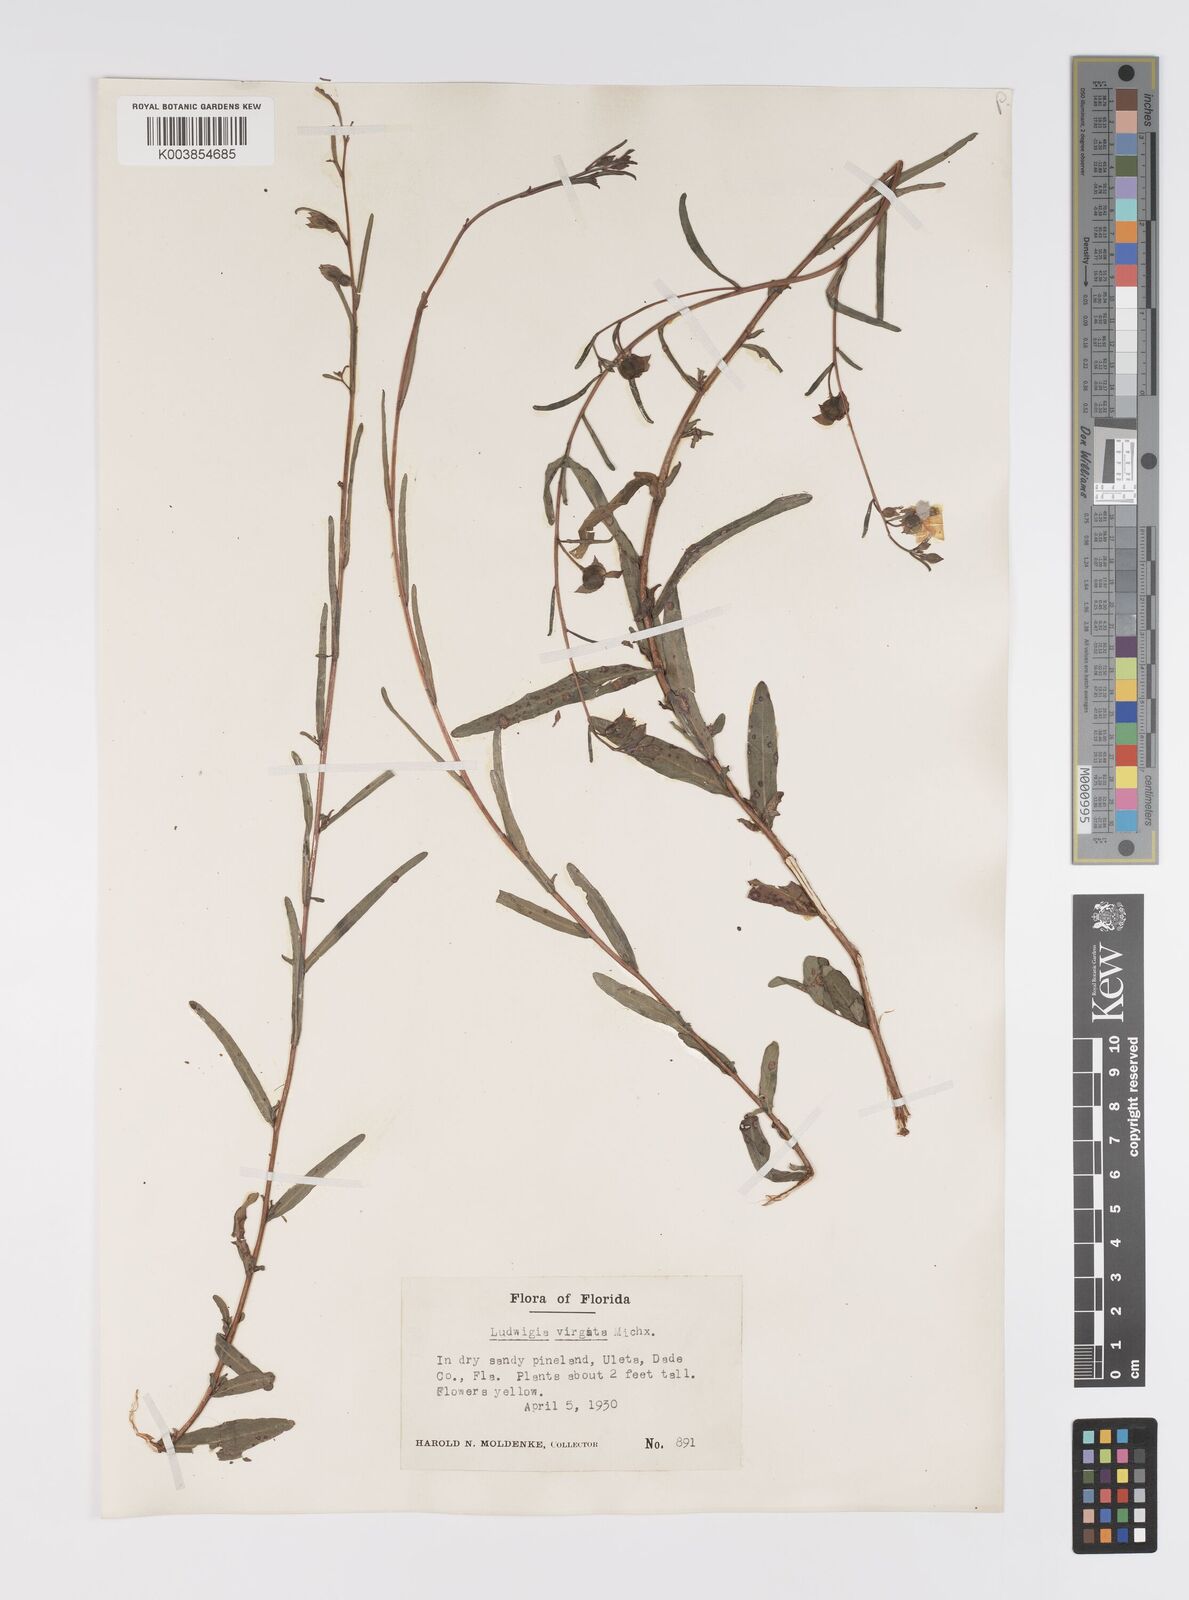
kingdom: Plantae
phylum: Tracheophyta
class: Magnoliopsida
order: Myrtales
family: Onagraceae
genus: Ludwigia
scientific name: Ludwigia virgata
